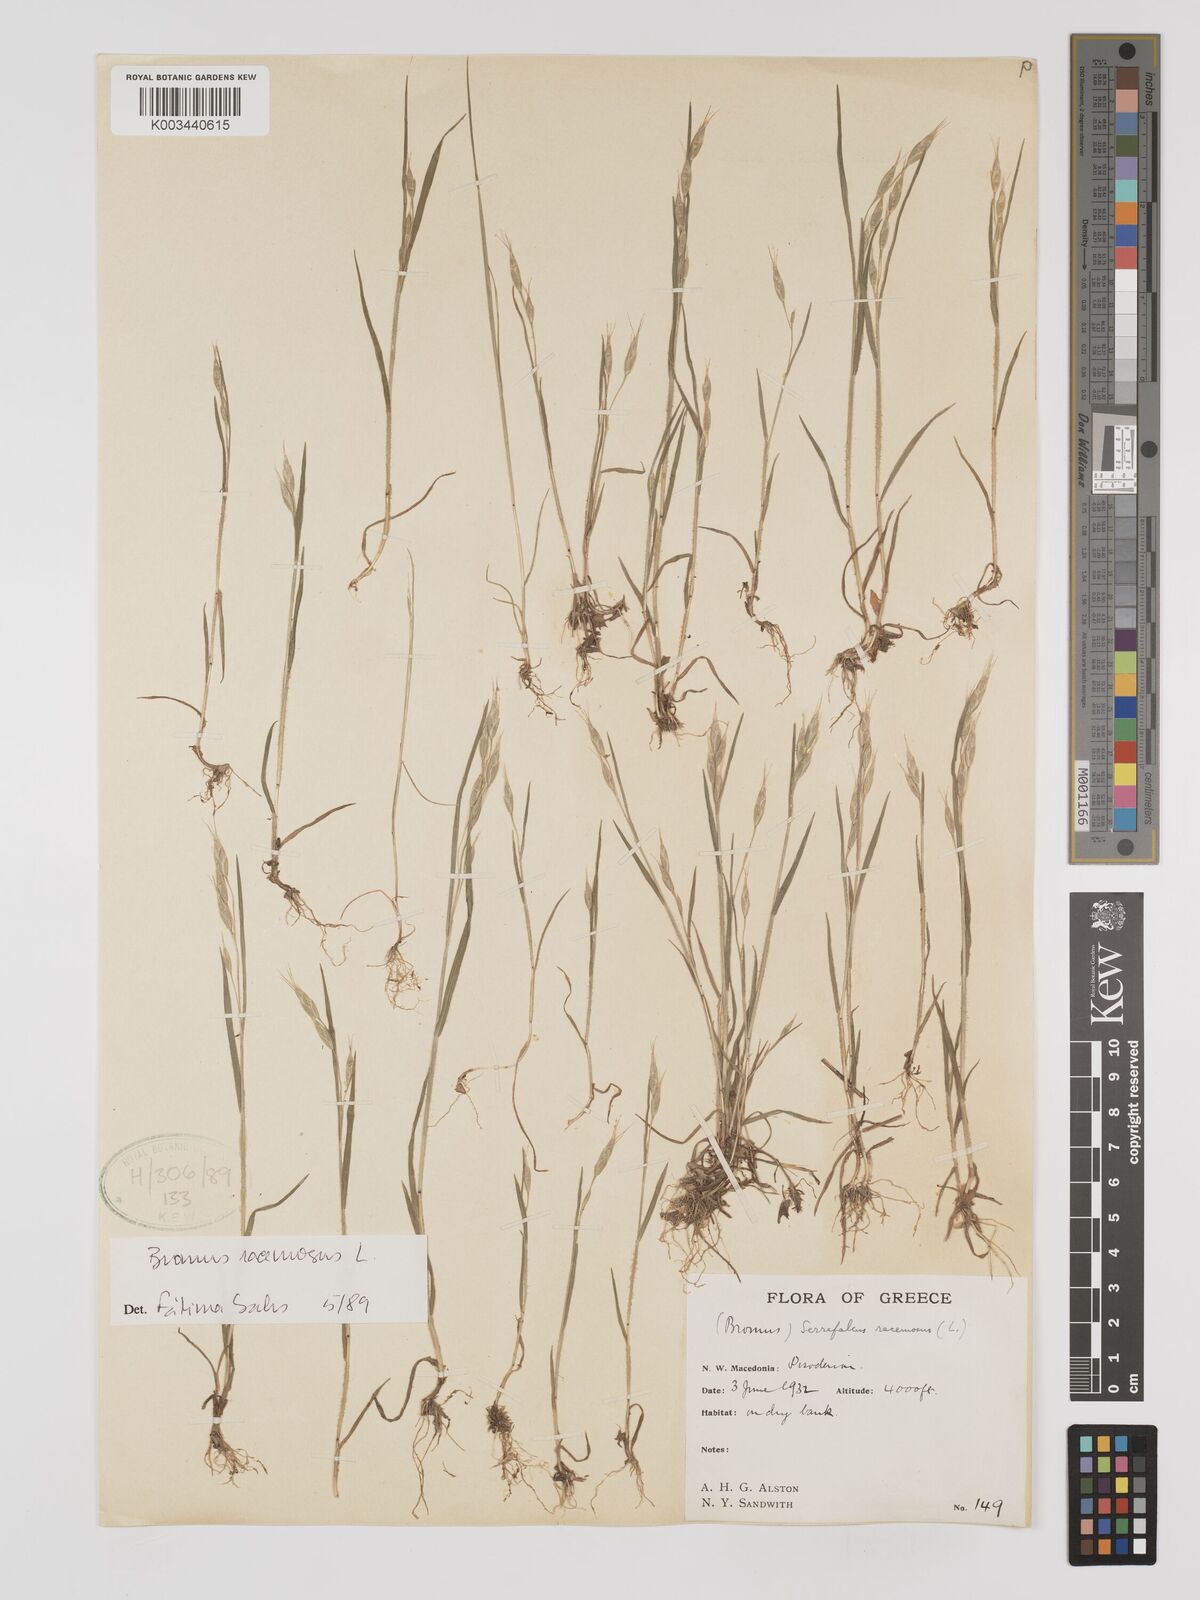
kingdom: Plantae
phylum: Tracheophyta
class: Liliopsida
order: Poales
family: Poaceae
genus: Bromus
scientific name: Bromus racemosus
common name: Bald brome
